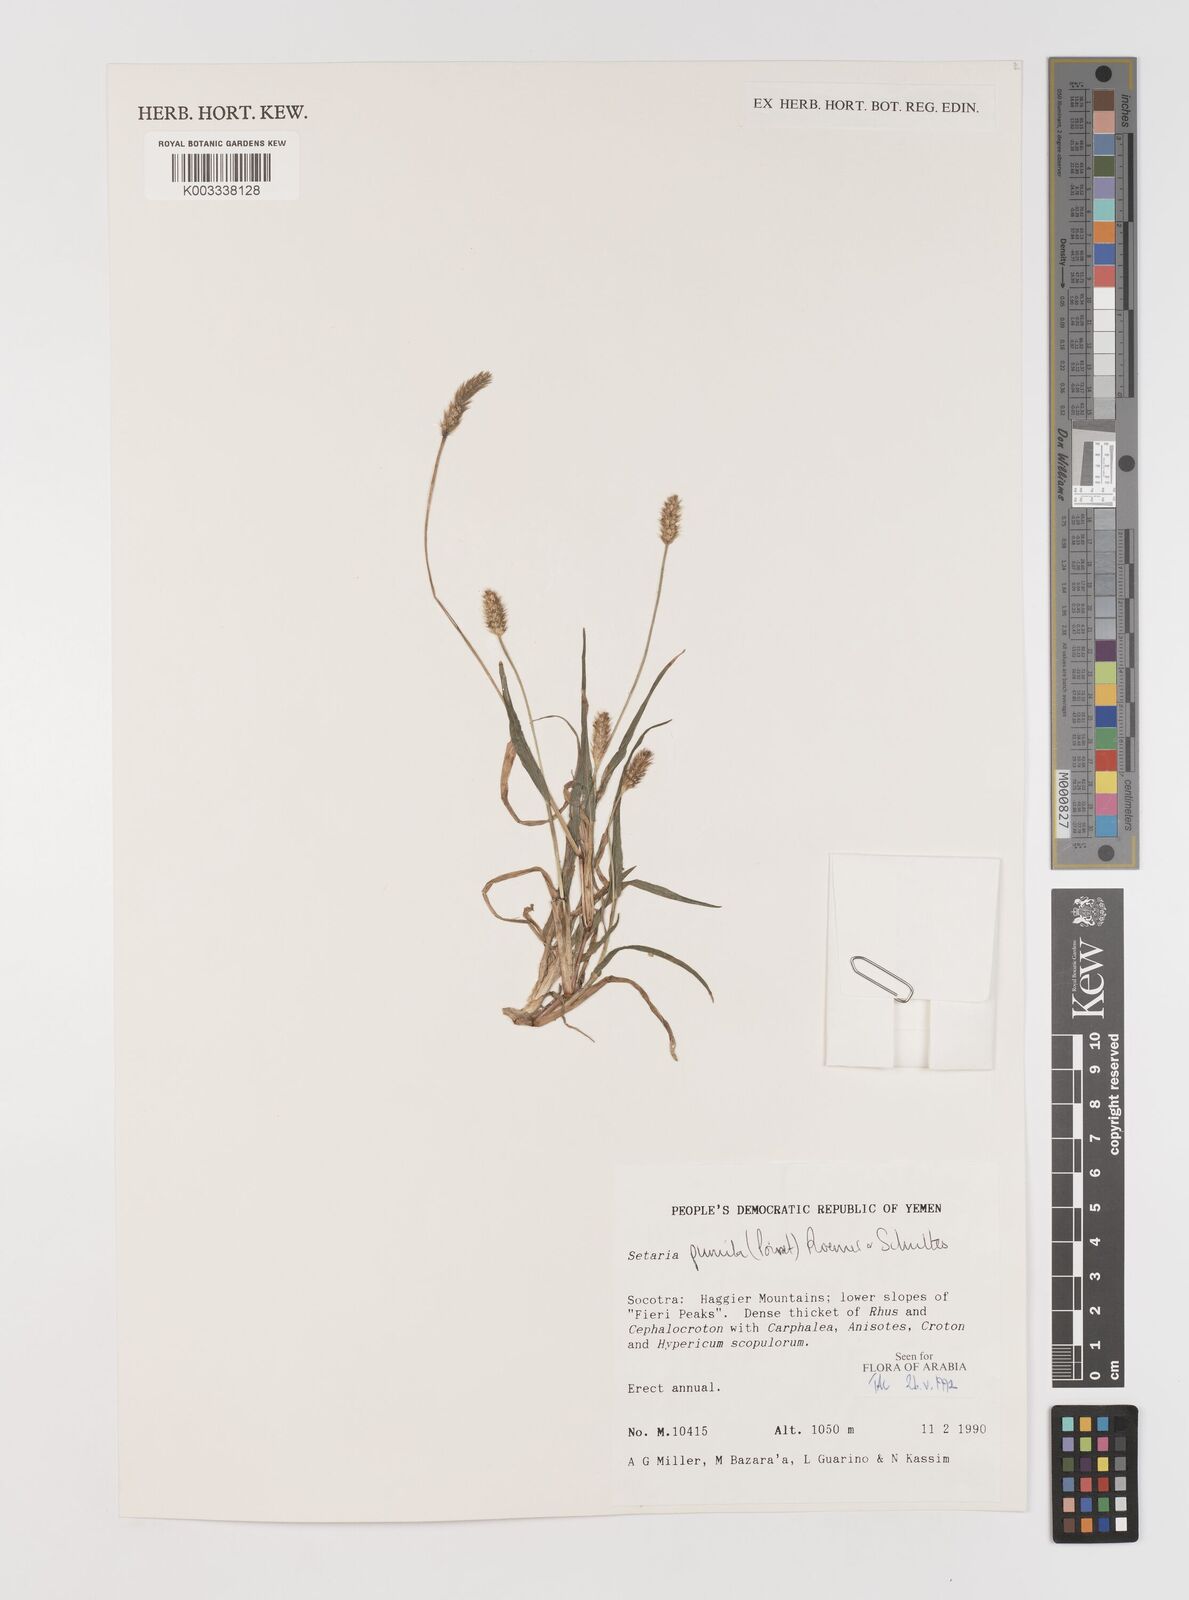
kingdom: Plantae
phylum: Tracheophyta
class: Liliopsida
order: Poales
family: Poaceae
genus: Setaria
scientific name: Setaria pumila
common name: Yellow bristle-grass
